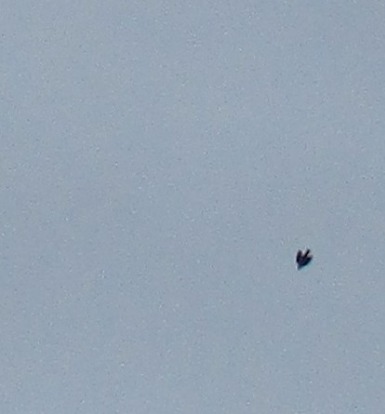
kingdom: Animalia
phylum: Chordata
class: Aves
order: Passeriformes
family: Turdidae
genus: Turdus
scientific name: Turdus pilaris
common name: Sjagger
